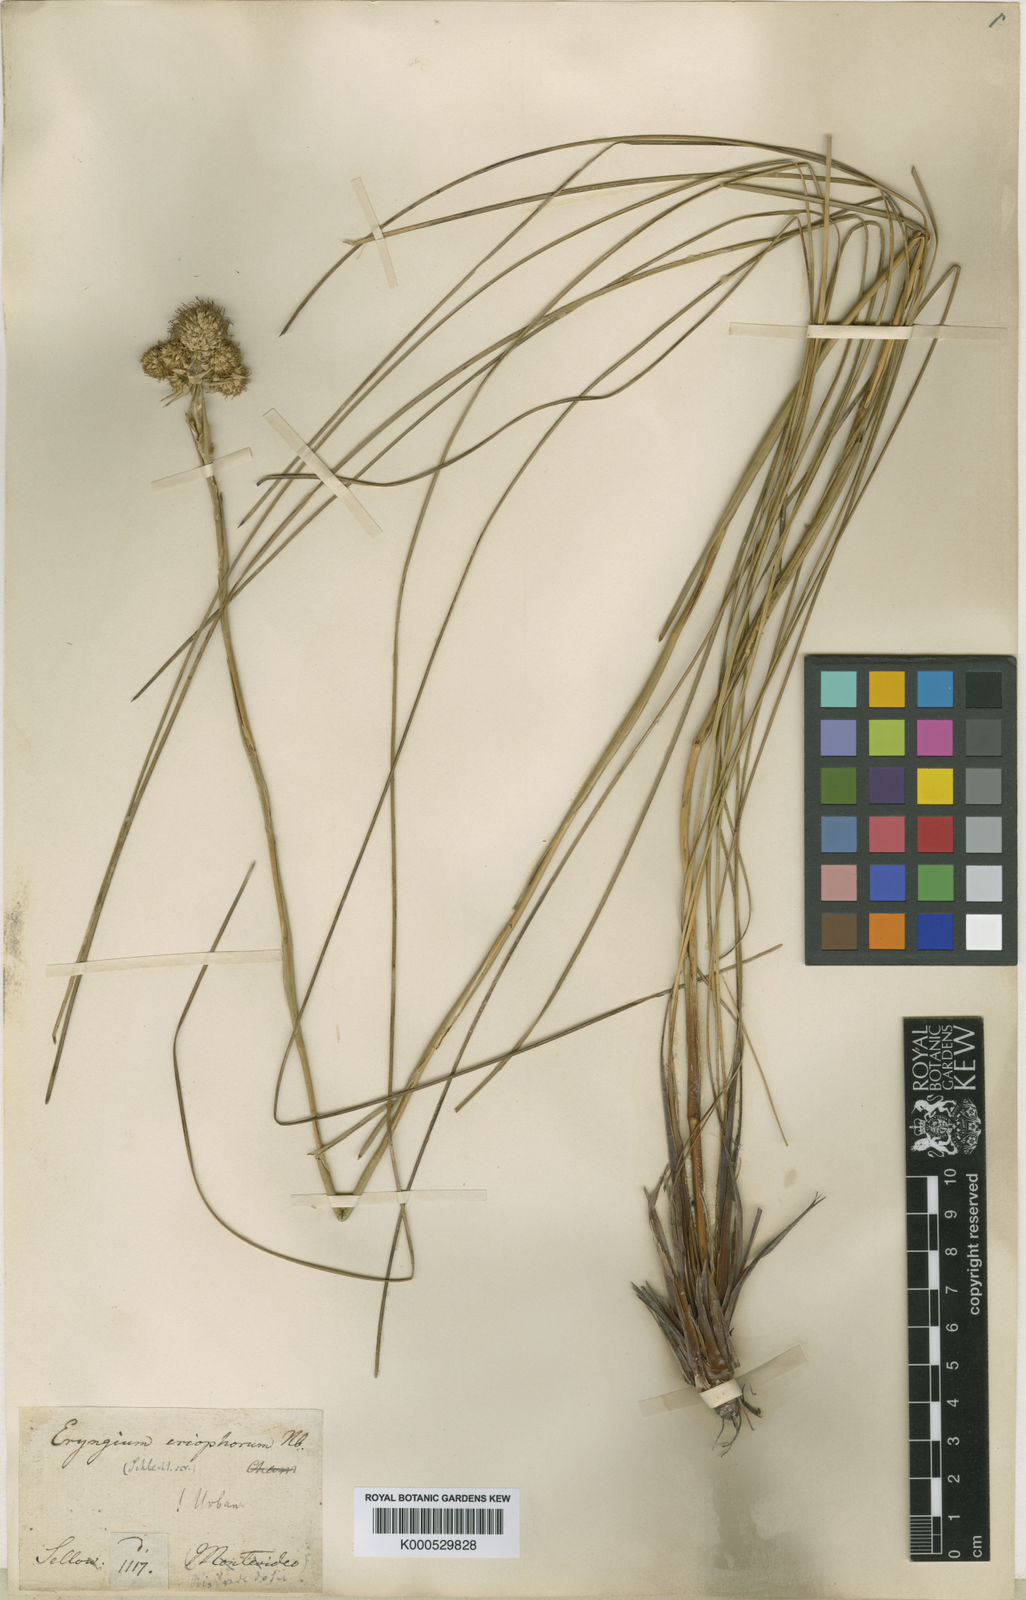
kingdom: Plantae
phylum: Tracheophyta
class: Magnoliopsida
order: Apiales
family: Apiaceae
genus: Eryngium
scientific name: Eryngium eriophorum
